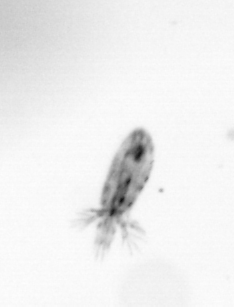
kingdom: Animalia
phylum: Arthropoda
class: Copepoda
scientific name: Copepoda
